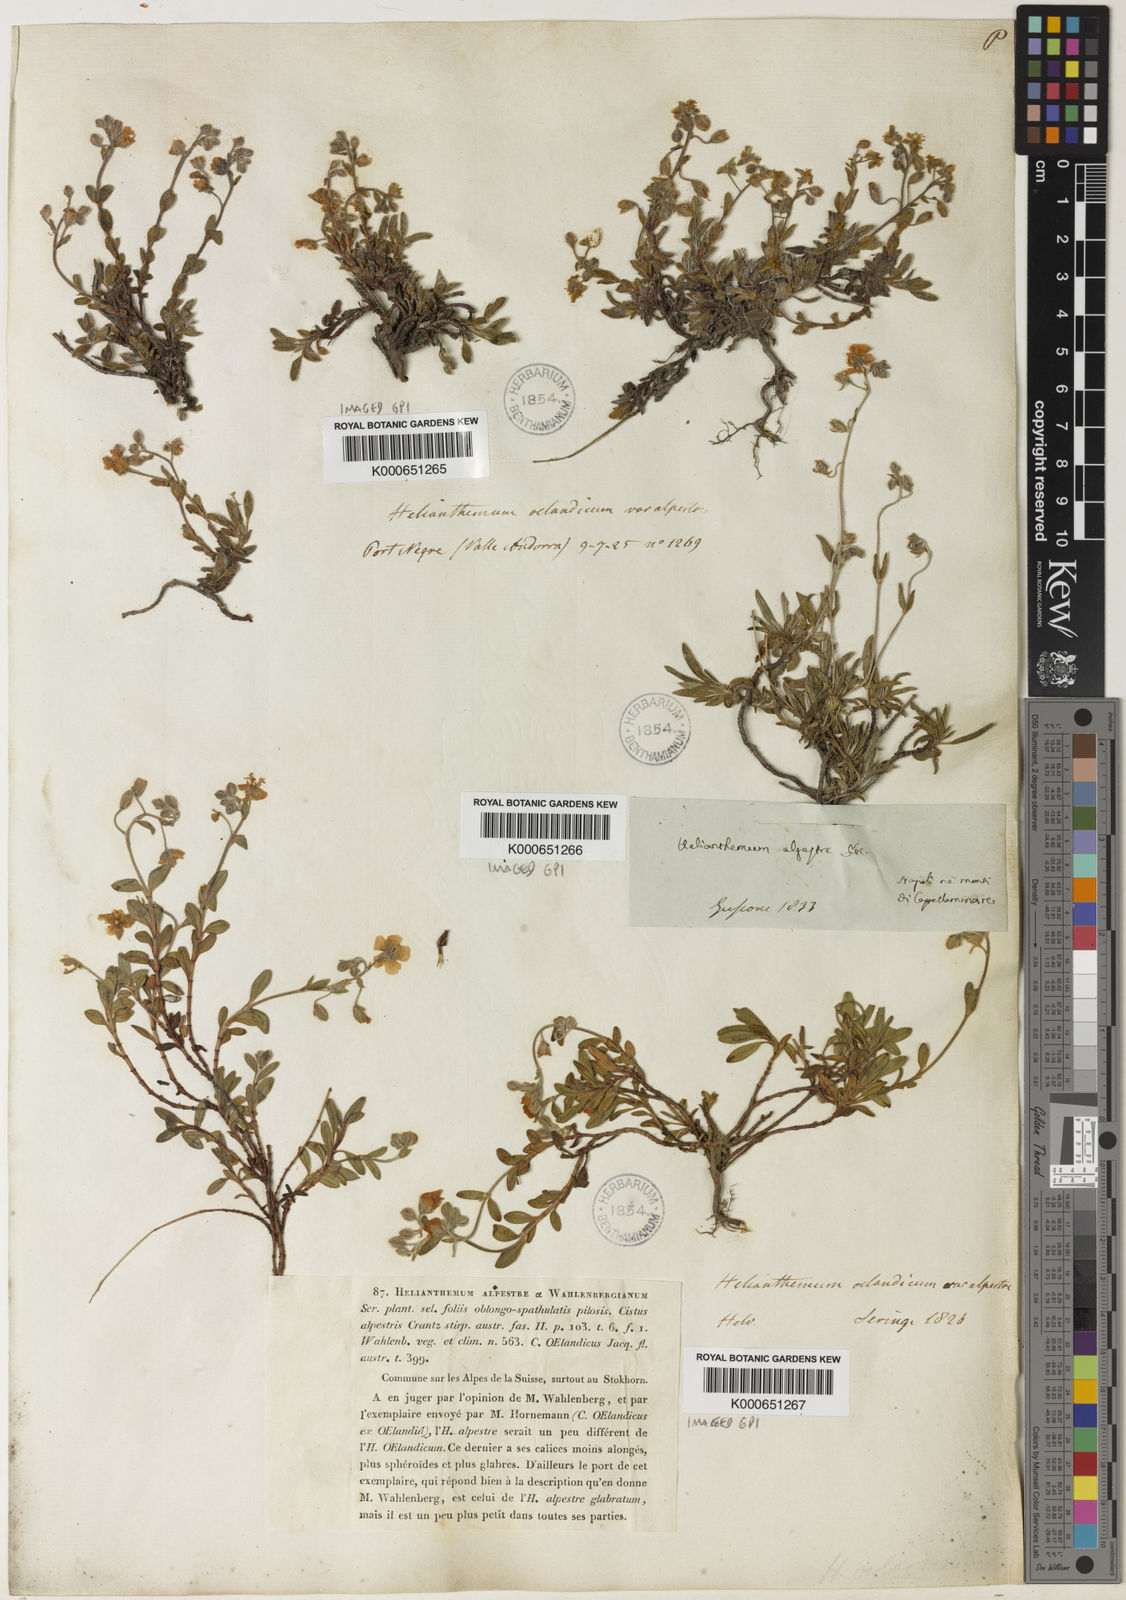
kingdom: Plantae
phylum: Tracheophyta
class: Magnoliopsida
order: Malvales
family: Cistaceae
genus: Helianthemum
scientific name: Helianthemum
